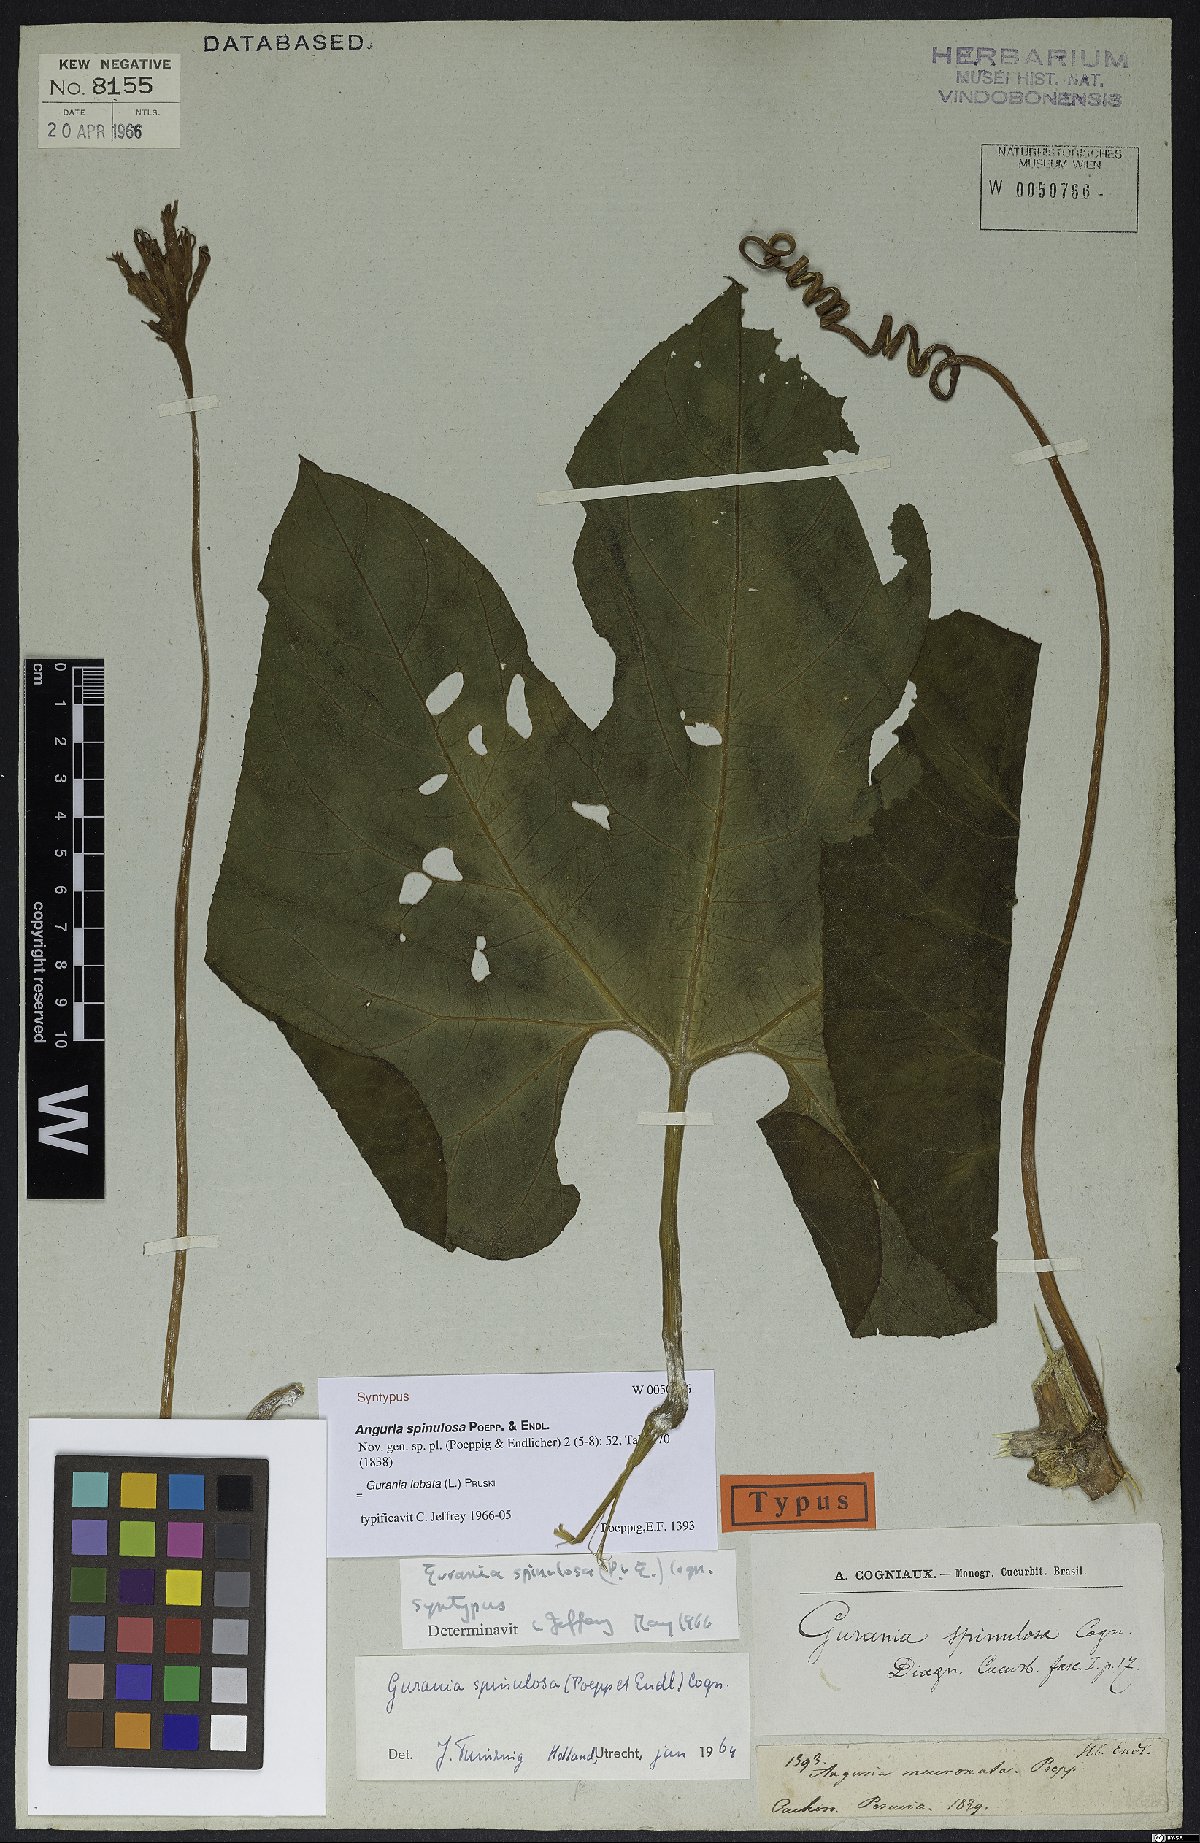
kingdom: Plantae
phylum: Tracheophyta
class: Magnoliopsida
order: Cucurbitales
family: Cucurbitaceae
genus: Gurania
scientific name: Gurania lobata
